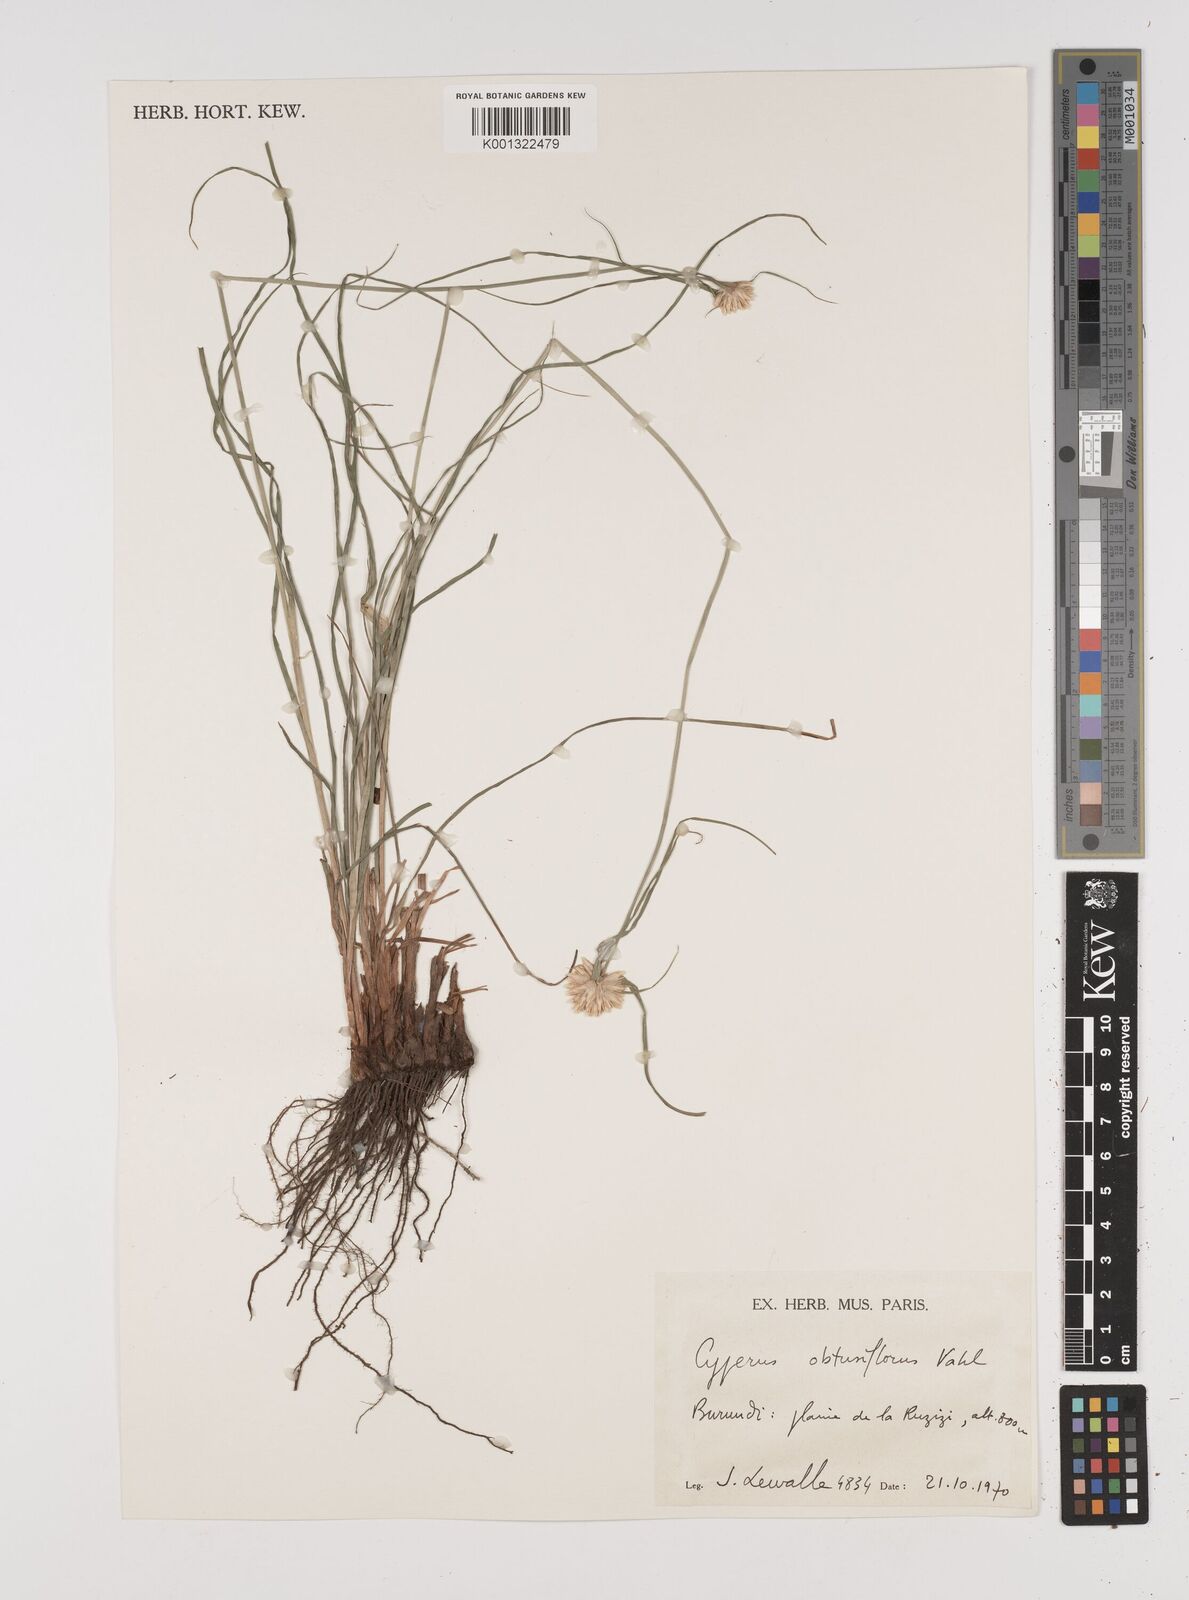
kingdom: Plantae
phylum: Tracheophyta
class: Liliopsida
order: Poales
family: Cyperaceae
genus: Cyperus
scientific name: Cyperus niveus
